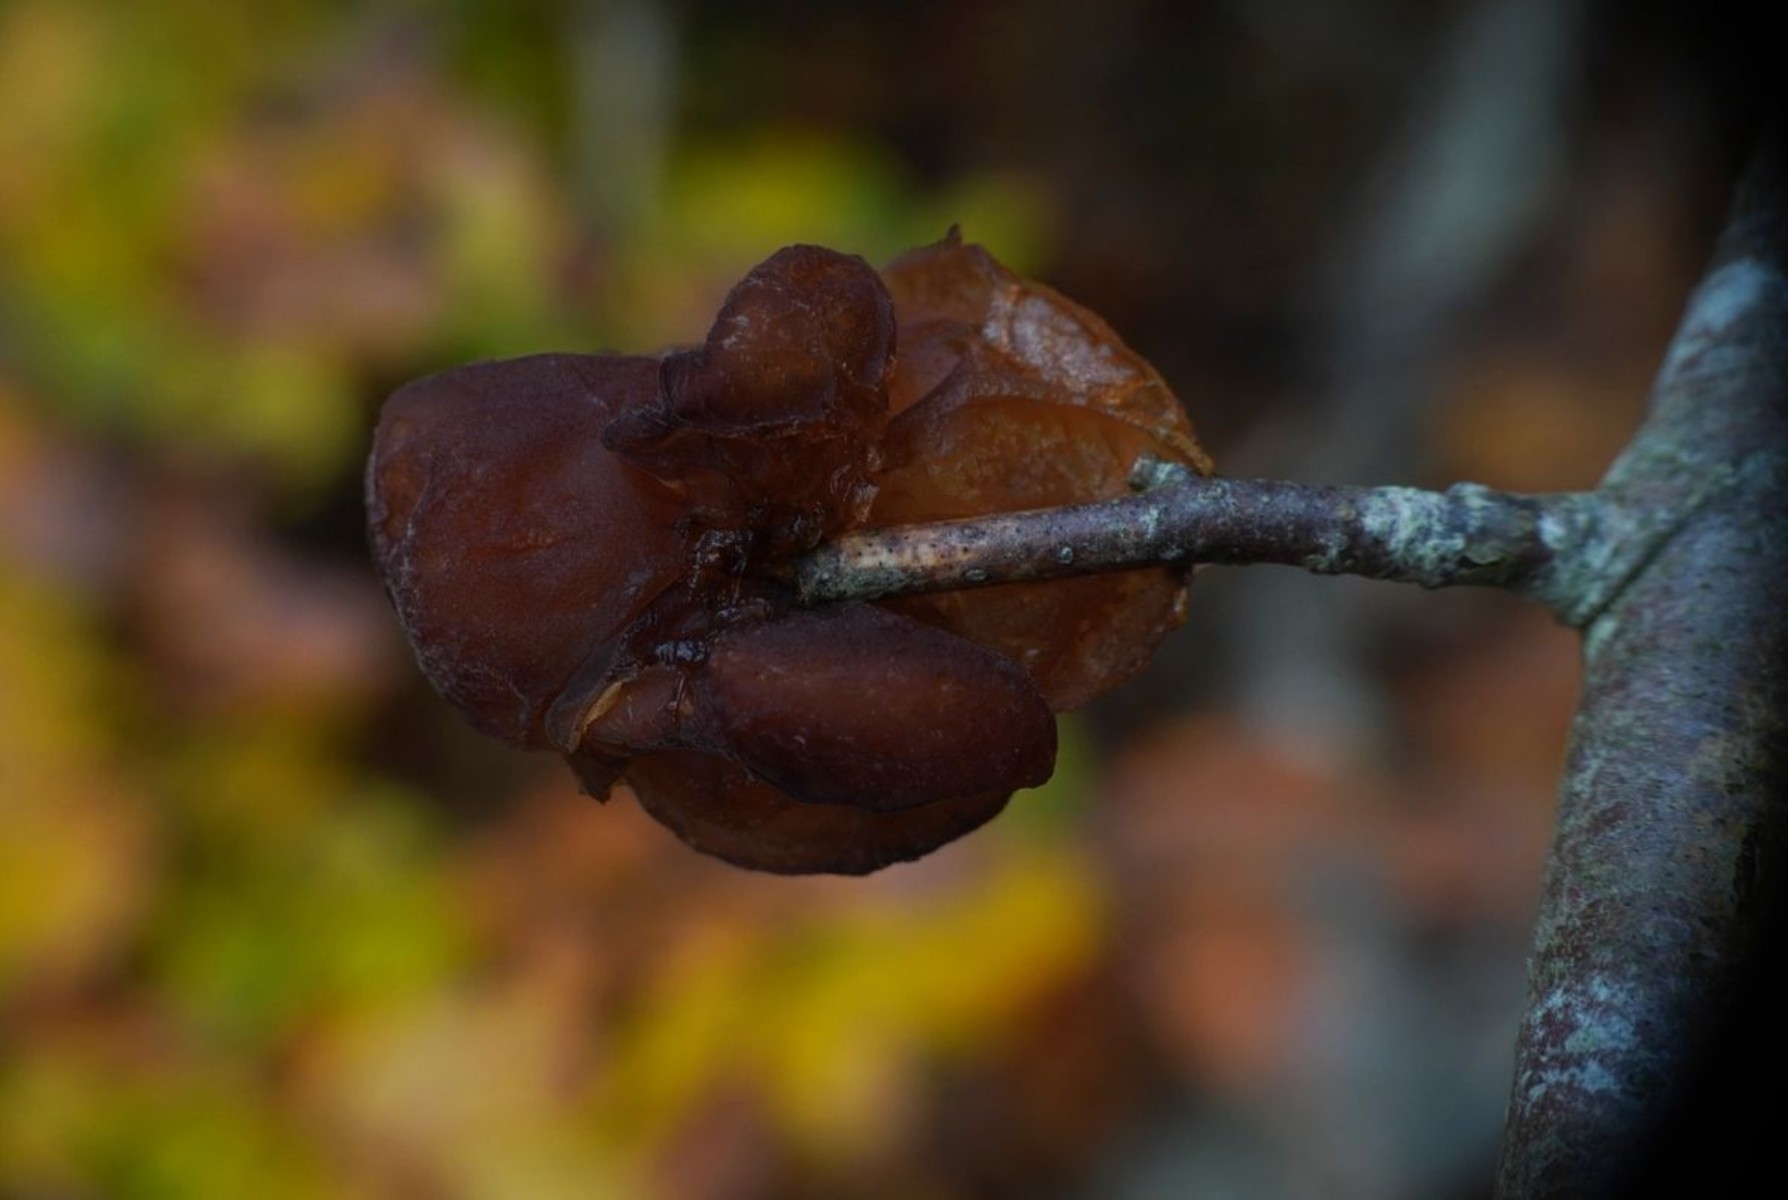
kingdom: Fungi
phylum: Basidiomycota
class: Agaricomycetes
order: Auriculariales
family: Auriculariaceae
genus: Exidia
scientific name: Exidia recisa
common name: pile-bævretop
